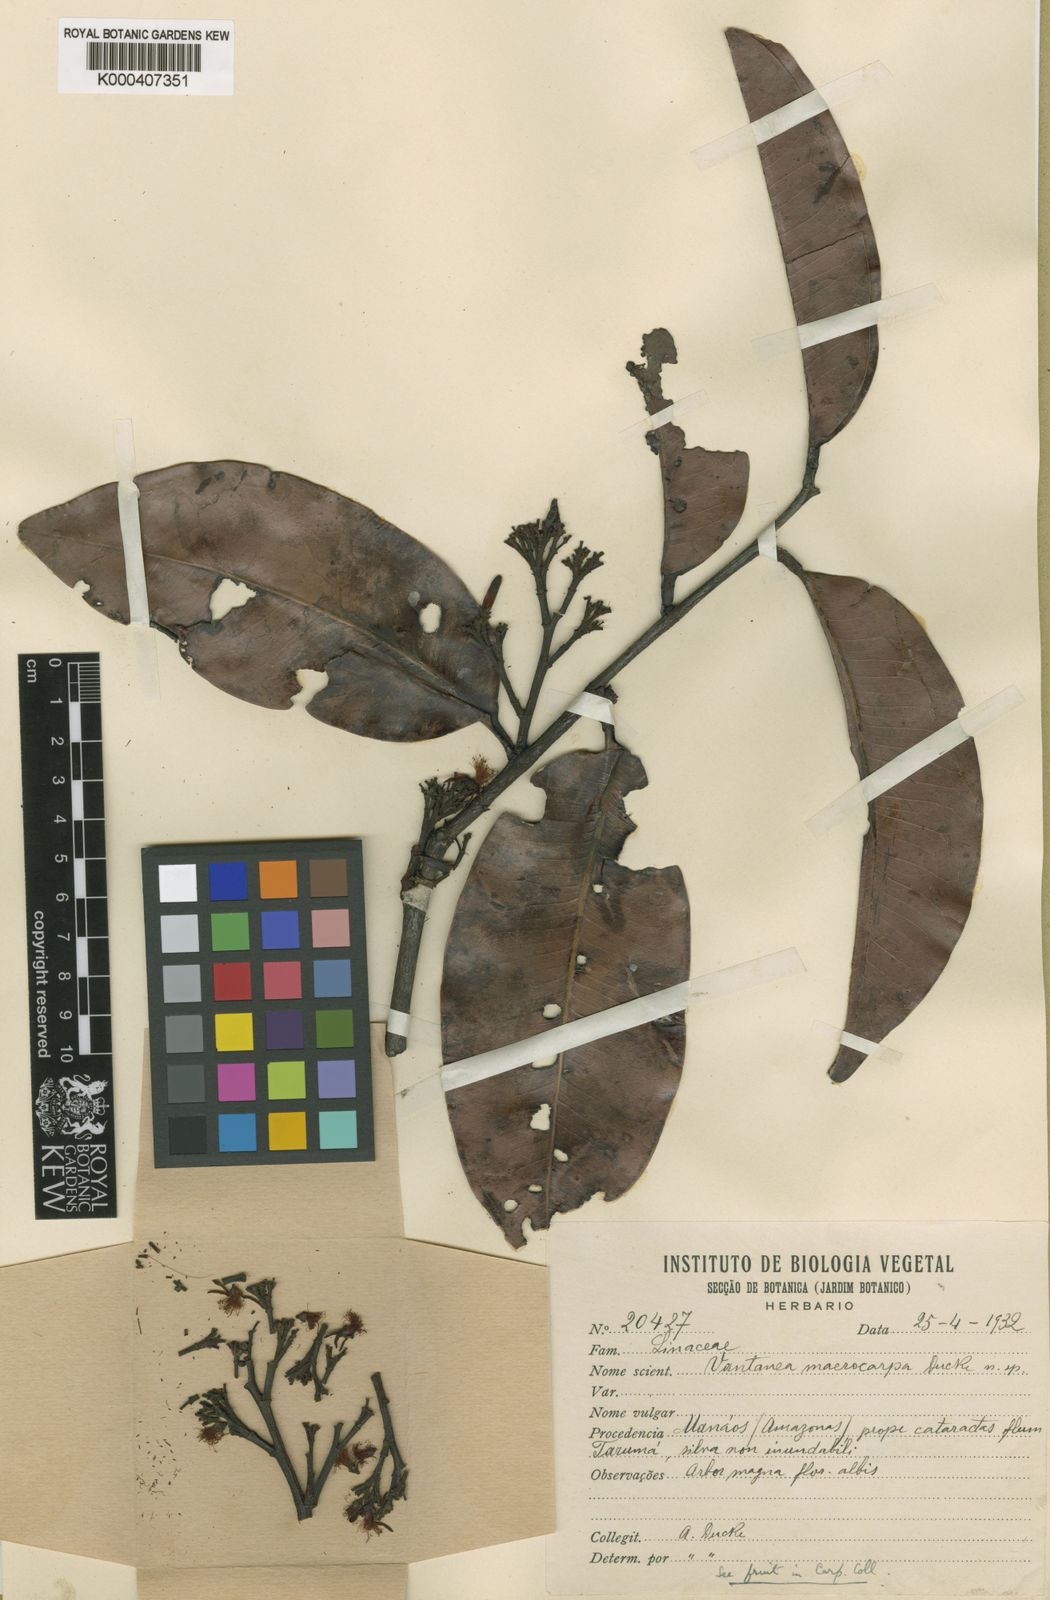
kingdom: Plantae
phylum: Tracheophyta
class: Magnoliopsida
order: Malpighiales
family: Humiriaceae
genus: Vantanea
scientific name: Vantanea macrocarpa
